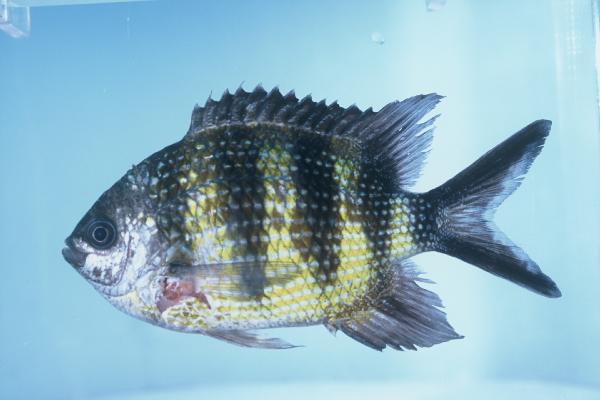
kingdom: Animalia
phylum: Chordata
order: Perciformes
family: Pomacentridae
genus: Abudefduf
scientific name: Abudefduf sexfasciatus
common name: Scissortail sergeant
